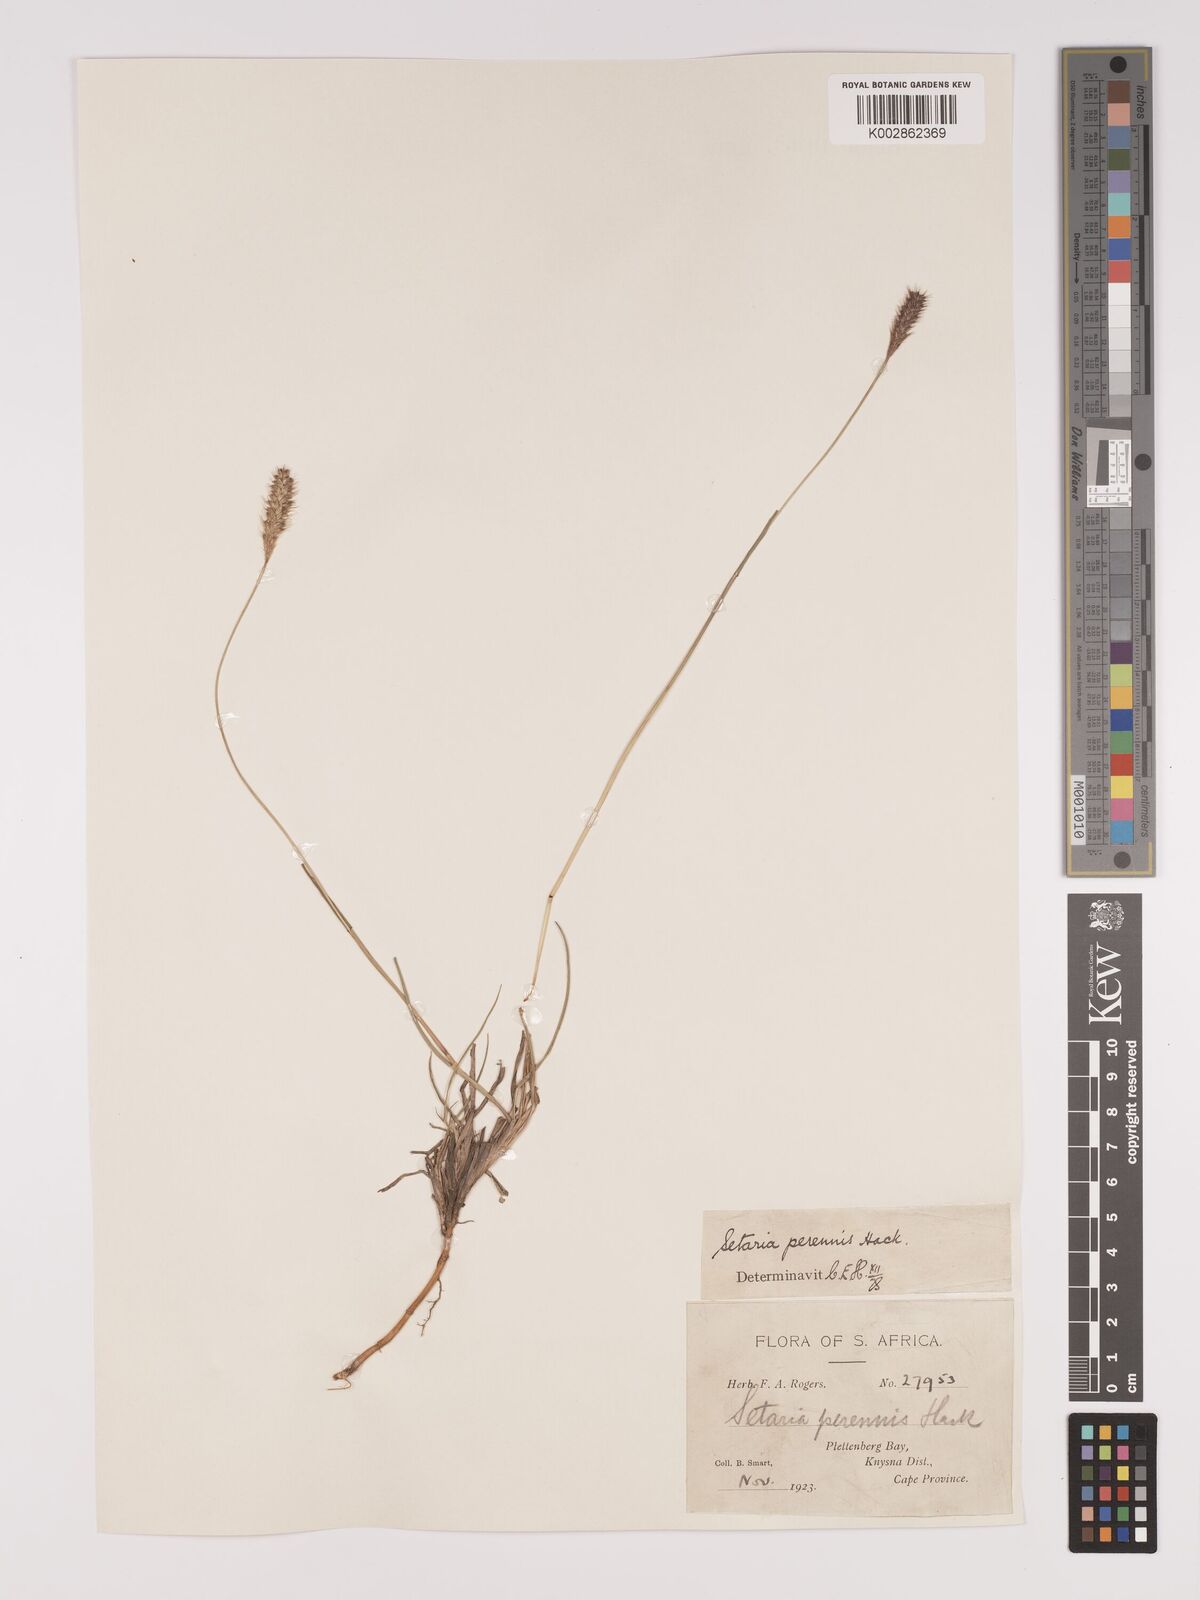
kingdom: Plantae
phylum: Tracheophyta
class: Liliopsida
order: Poales
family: Poaceae
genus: Setaria
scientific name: Setaria
